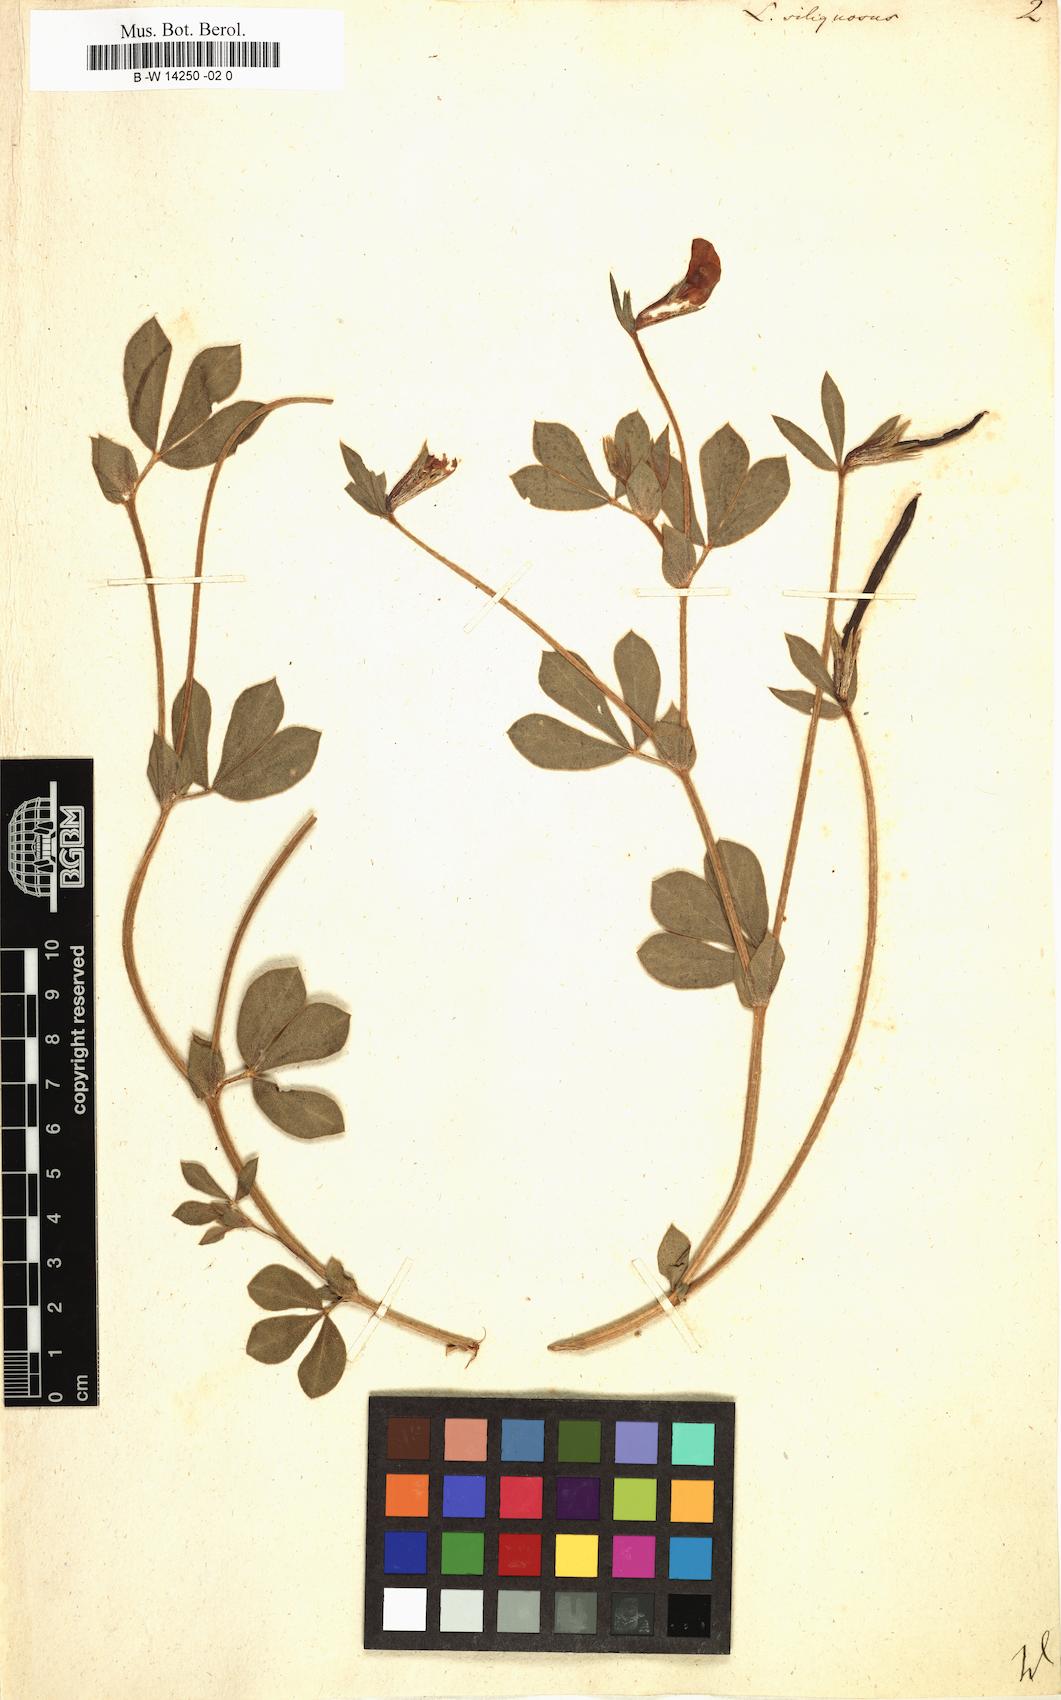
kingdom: Plantae
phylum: Tracheophyta
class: Magnoliopsida
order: Fabales
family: Fabaceae
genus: Lathyrus
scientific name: Lathyrus inconspicuus
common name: Inconspicuous pea
